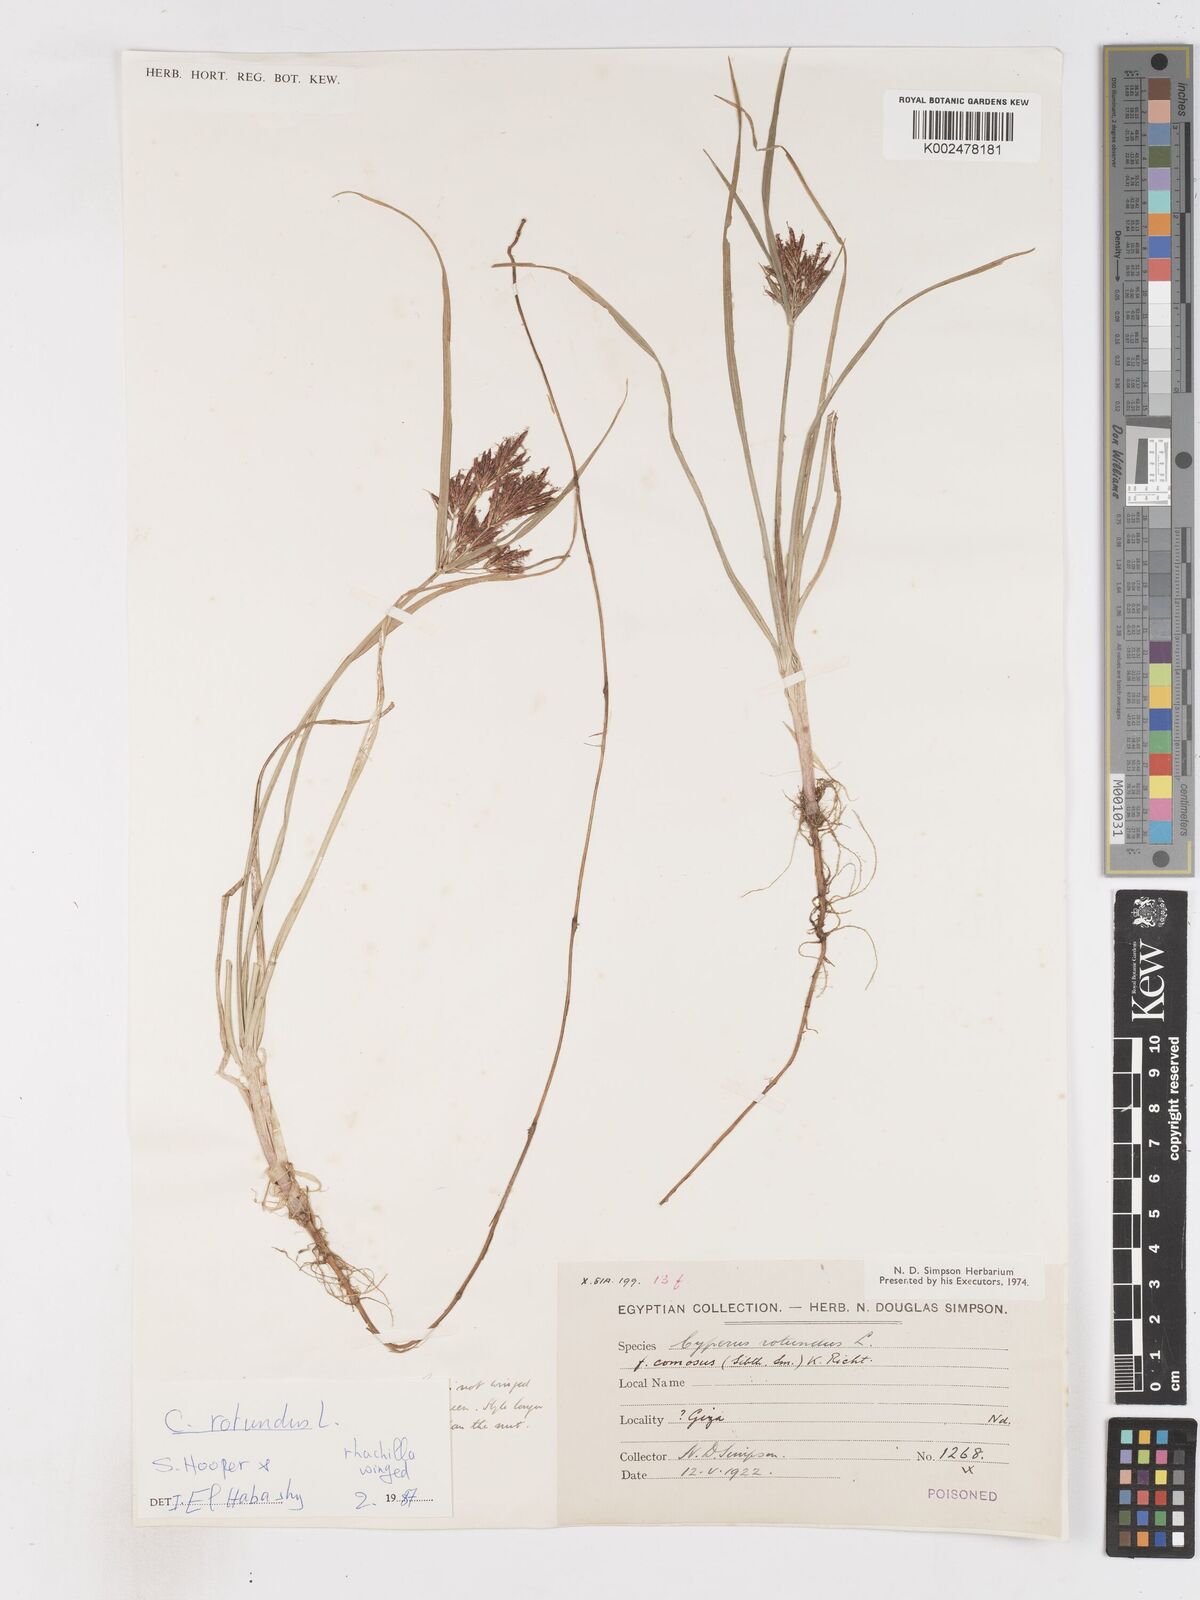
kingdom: Plantae
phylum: Tracheophyta
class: Liliopsida
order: Poales
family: Cyperaceae
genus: Cyperus
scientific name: Cyperus rotundus
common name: Nutgrass
